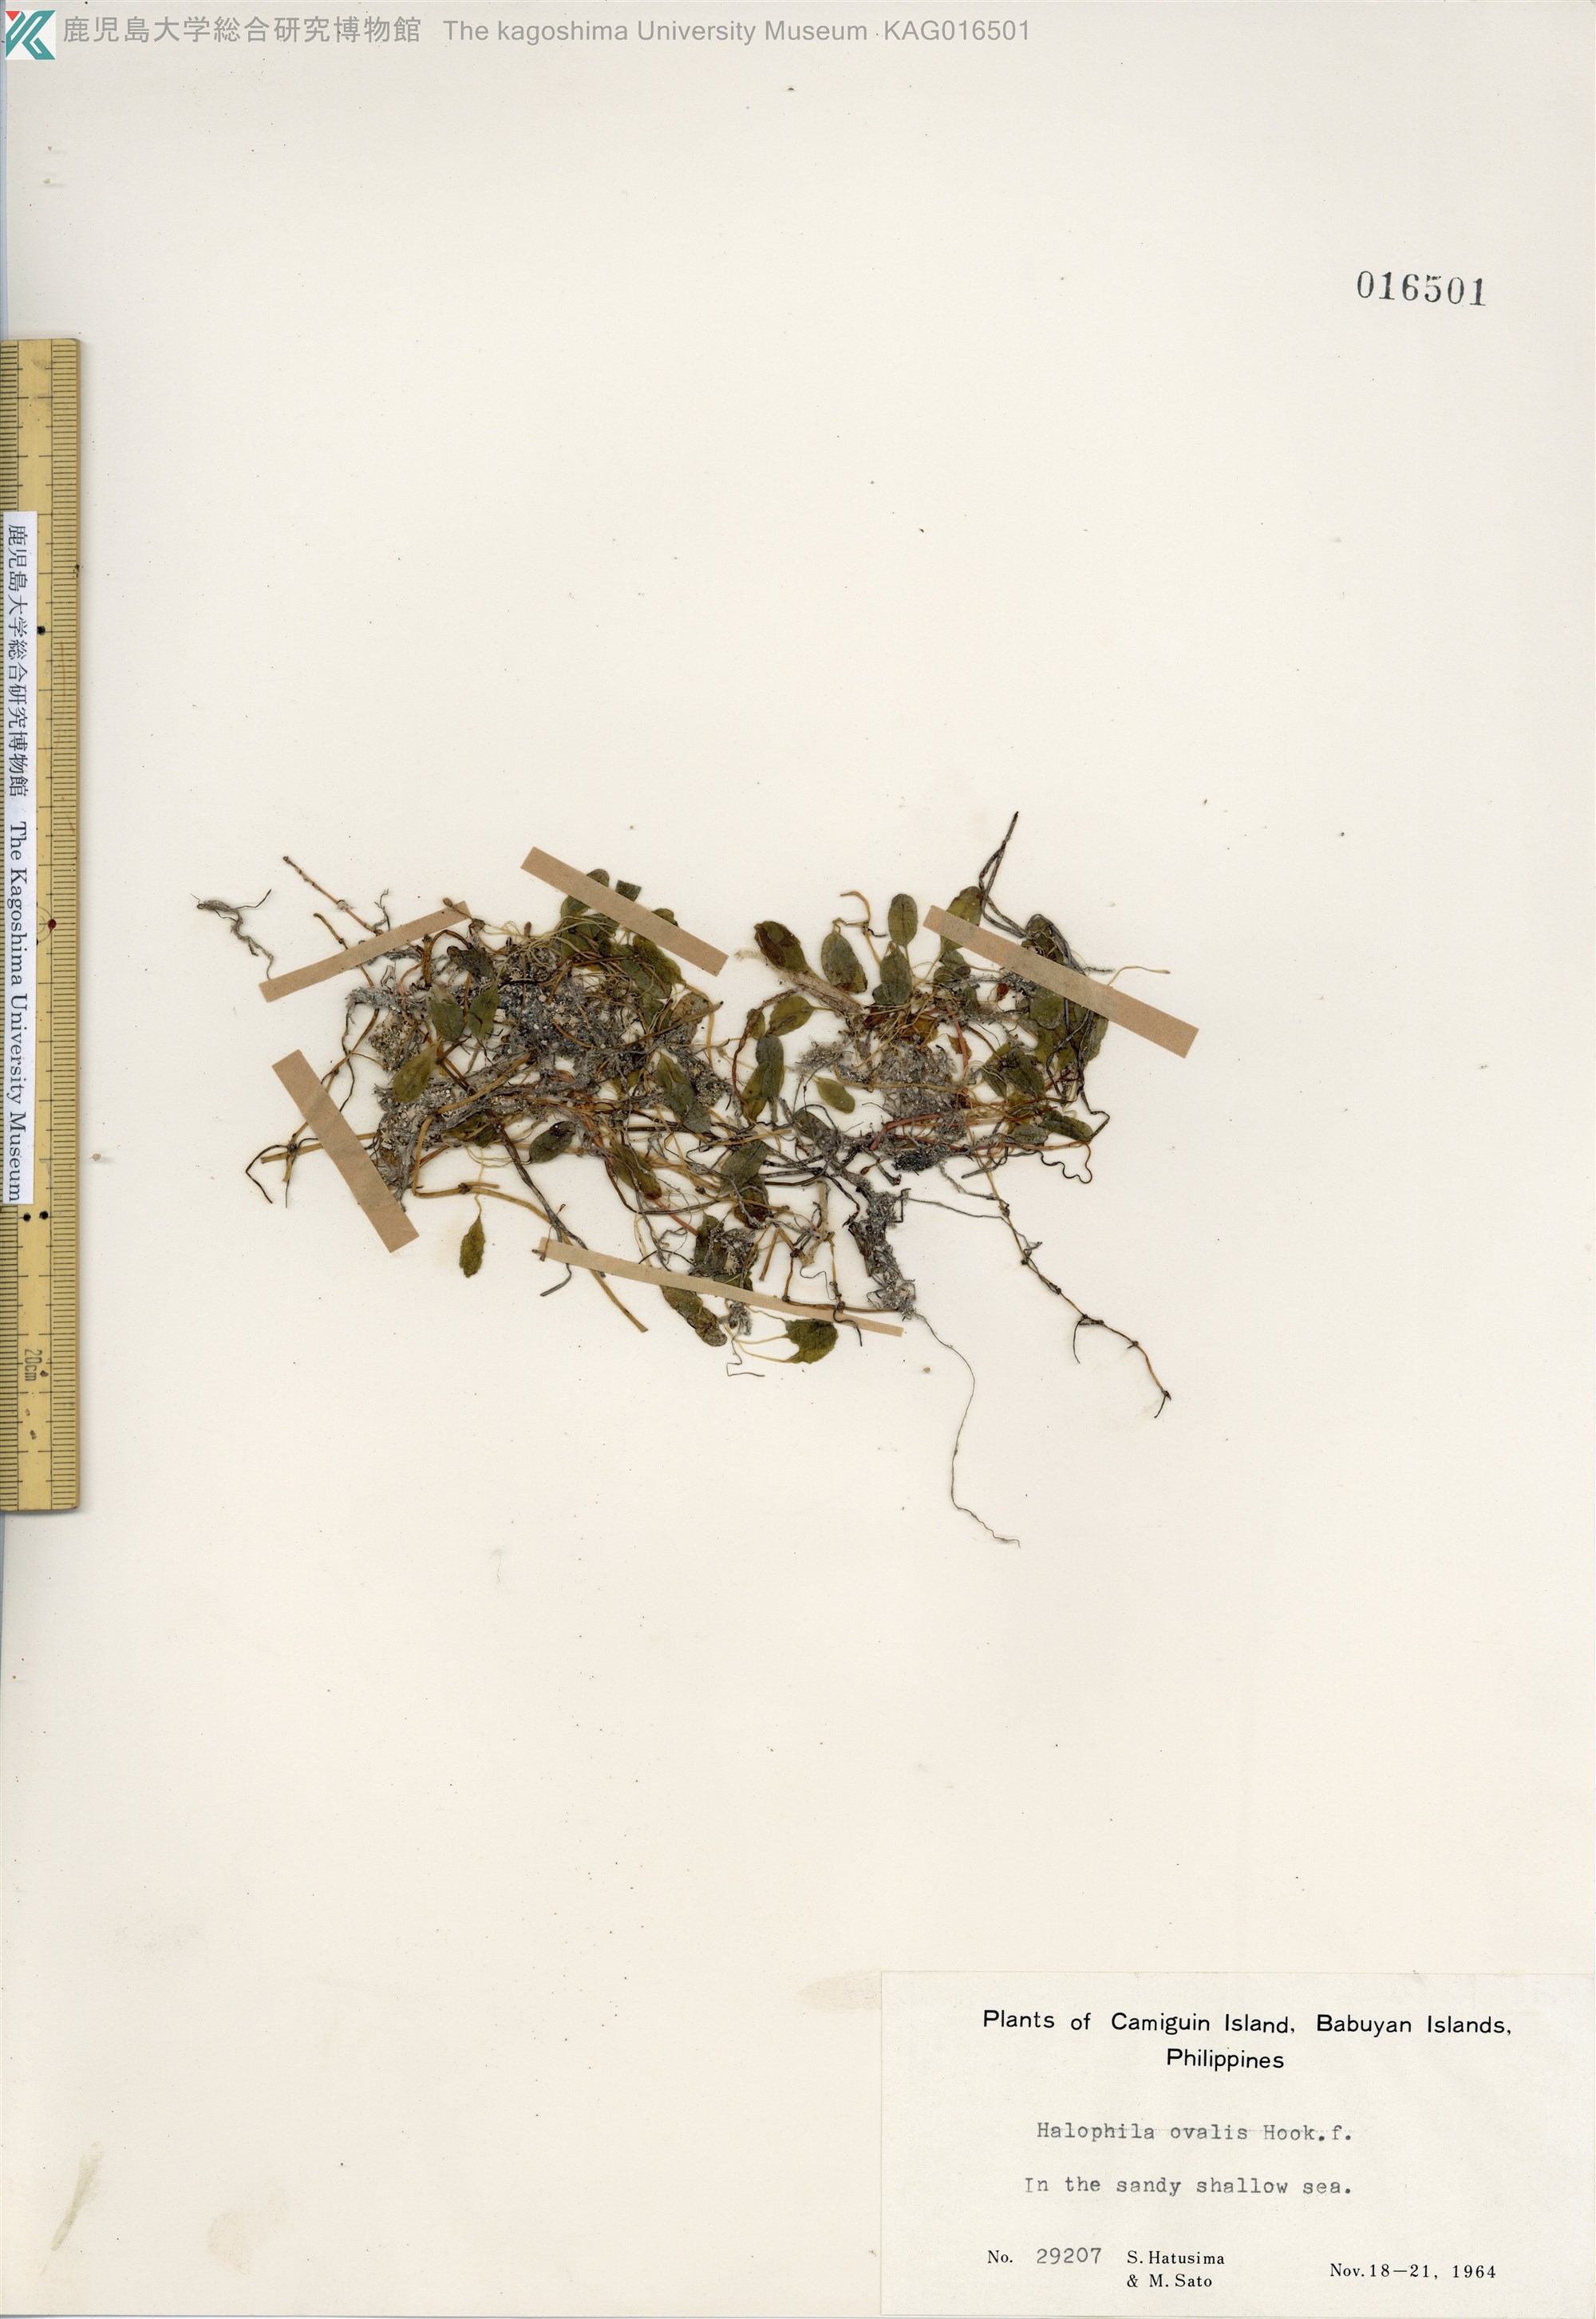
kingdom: Plantae
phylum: Tracheophyta
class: Liliopsida
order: Alismatales
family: Hydrocharitaceae
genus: Halophila
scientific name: Halophila ovalis
